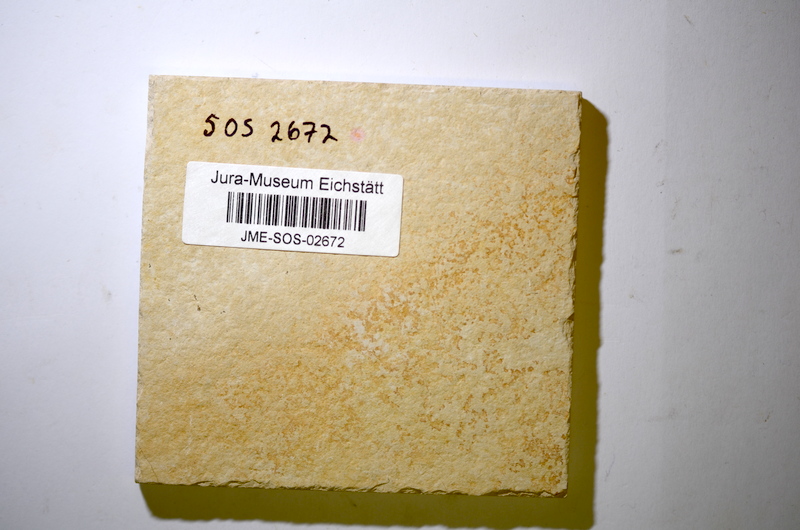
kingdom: Animalia
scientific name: Animalia
